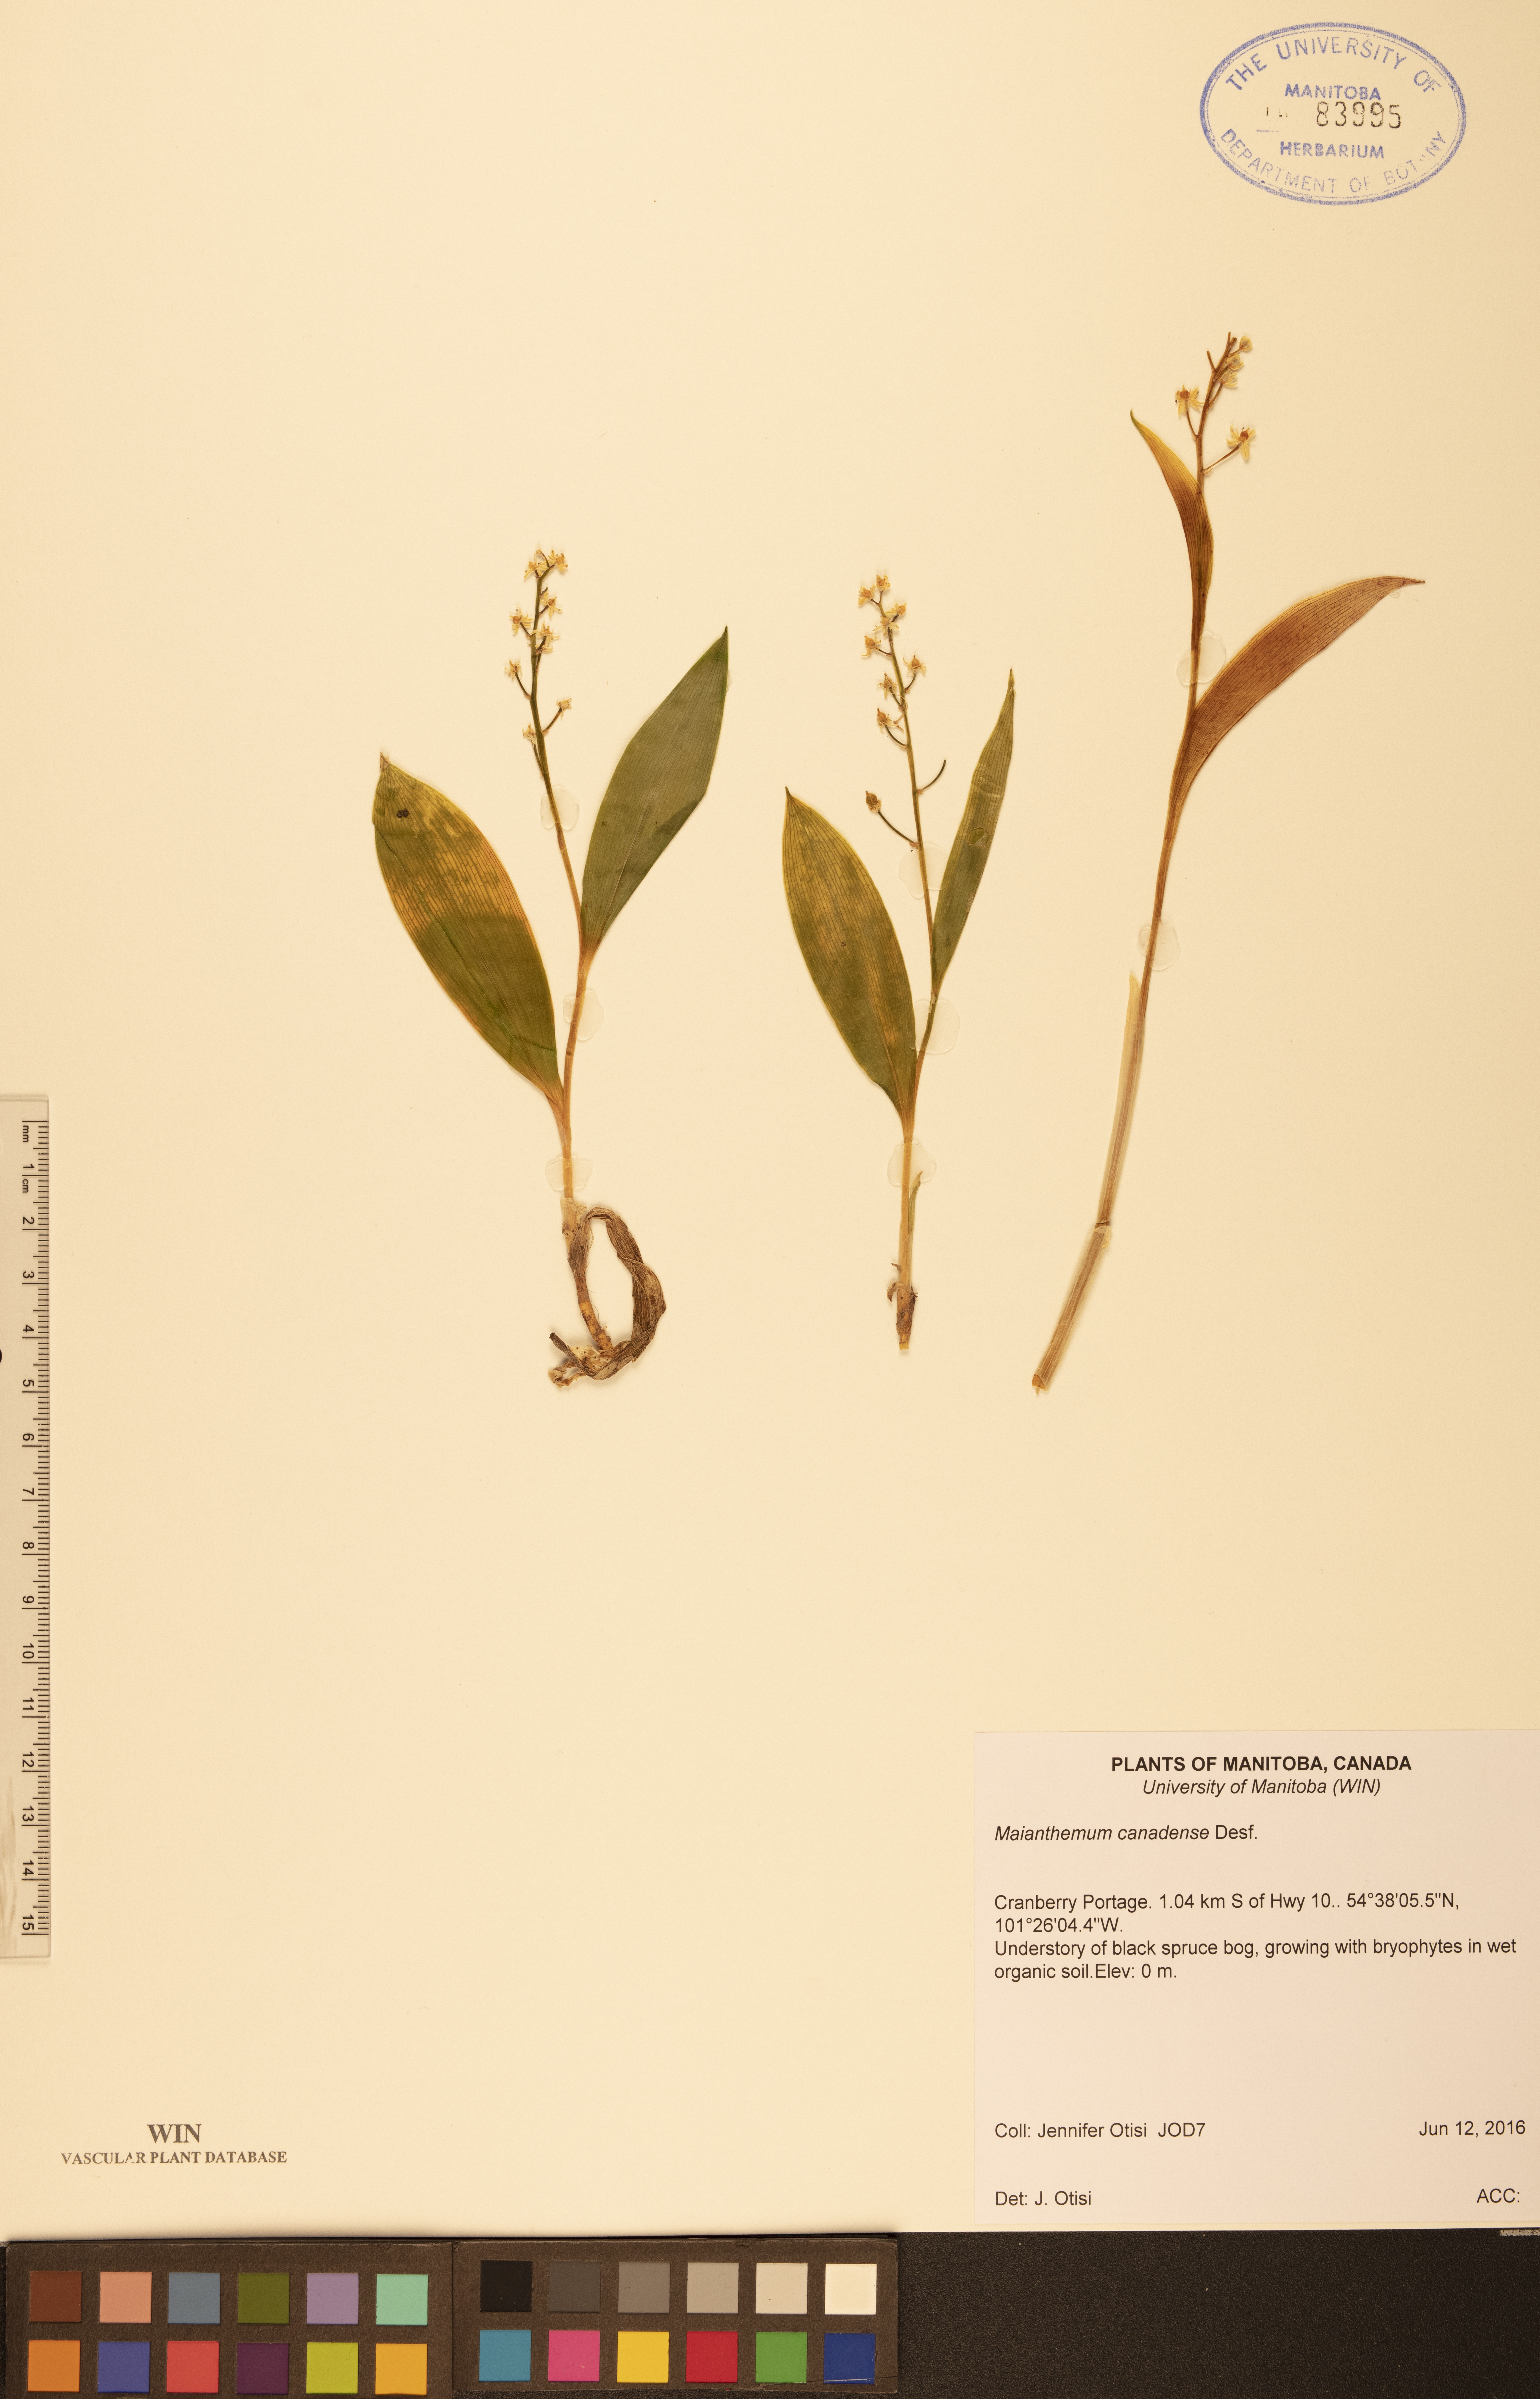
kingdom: Plantae
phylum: Tracheophyta
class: Liliopsida
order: Asparagales
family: Asparagaceae
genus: Maianthemum
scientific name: Maianthemum canadense
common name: False lily-of-the-valley
